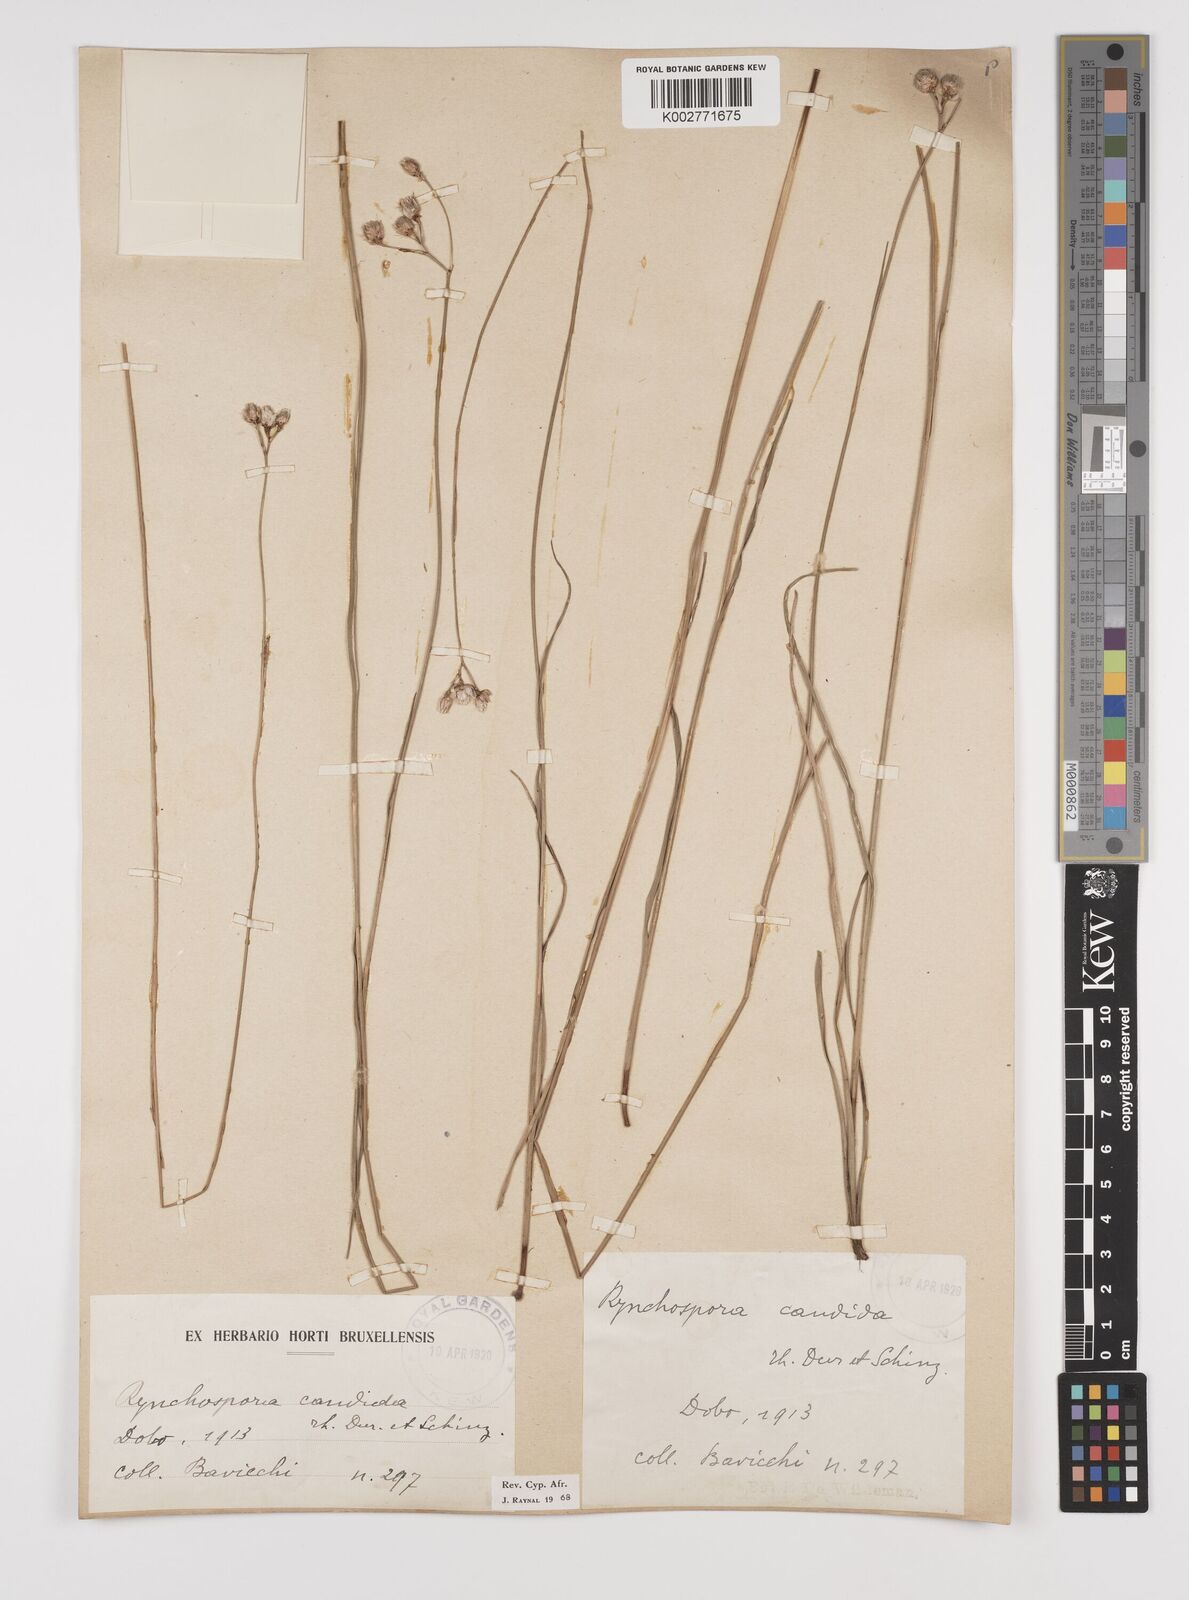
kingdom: Plantae
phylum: Tracheophyta
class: Liliopsida
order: Poales
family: Cyperaceae
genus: Rhynchospora
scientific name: Rhynchospora candida
